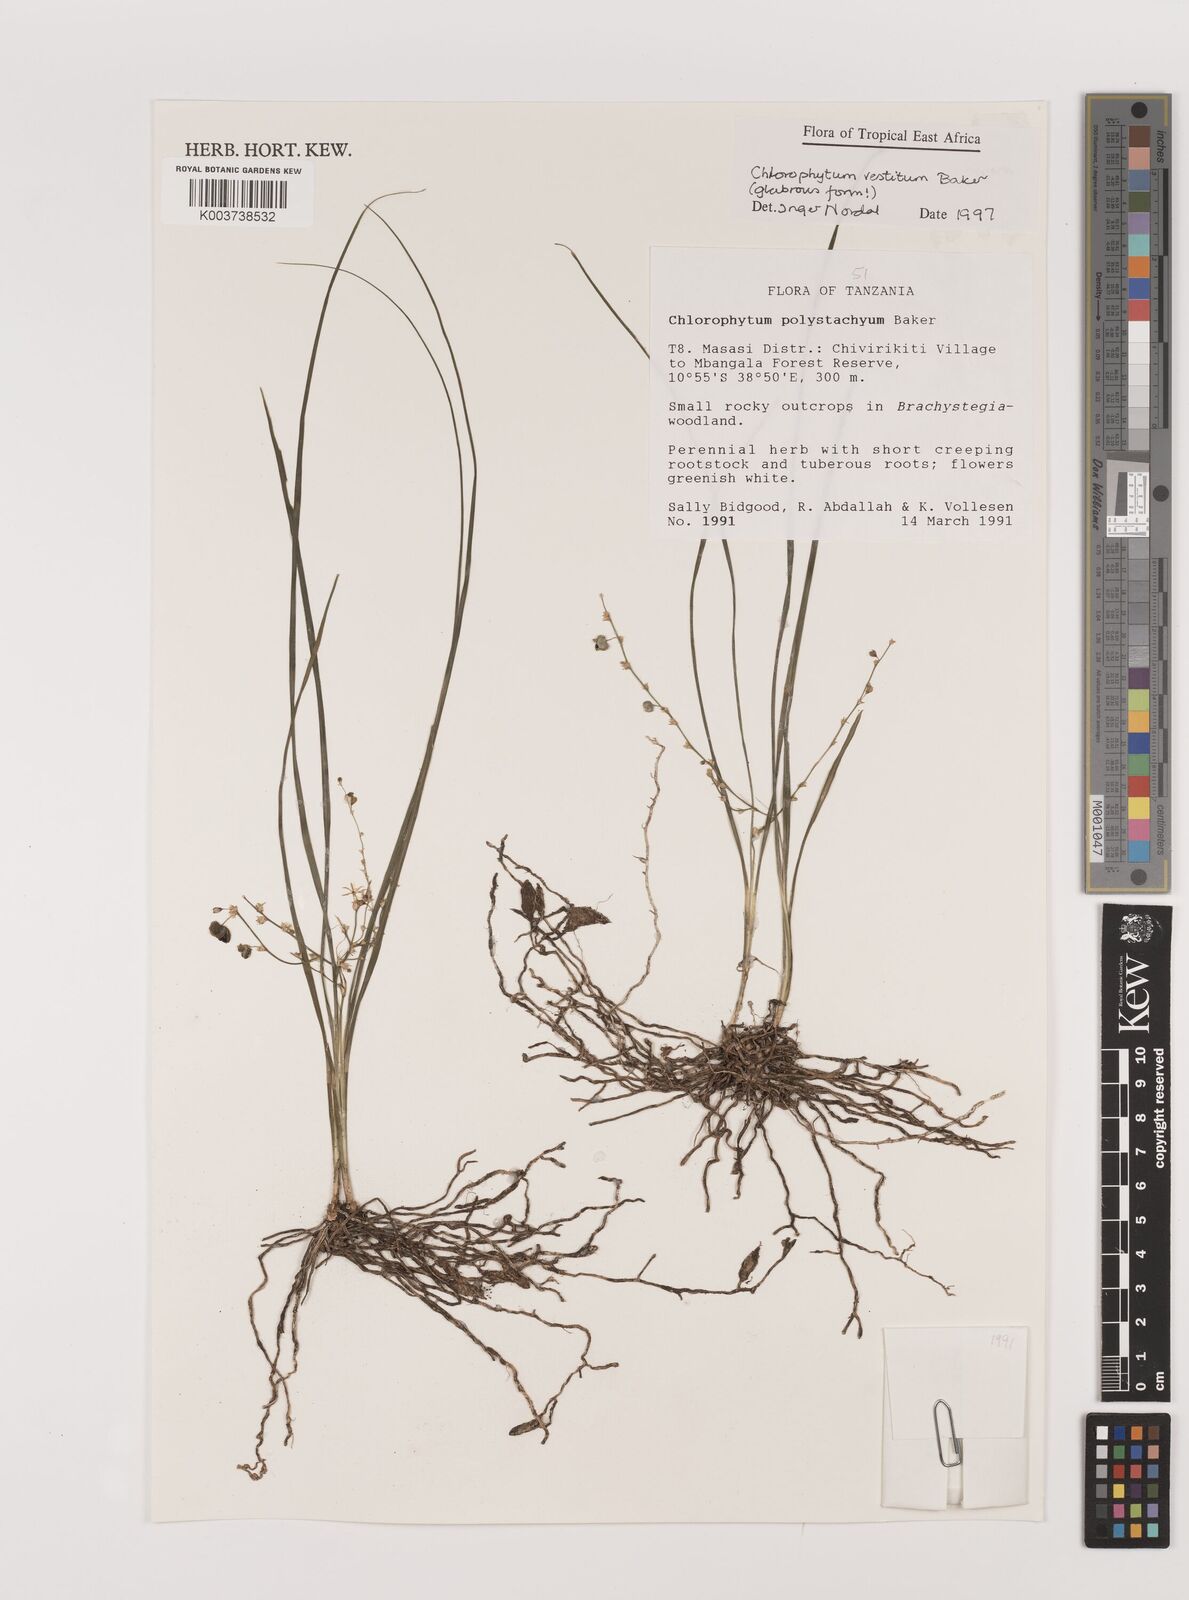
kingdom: Plantae
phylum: Tracheophyta
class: Liliopsida
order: Asparagales
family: Asparagaceae
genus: Chlorophytum
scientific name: Chlorophytum vestitum
